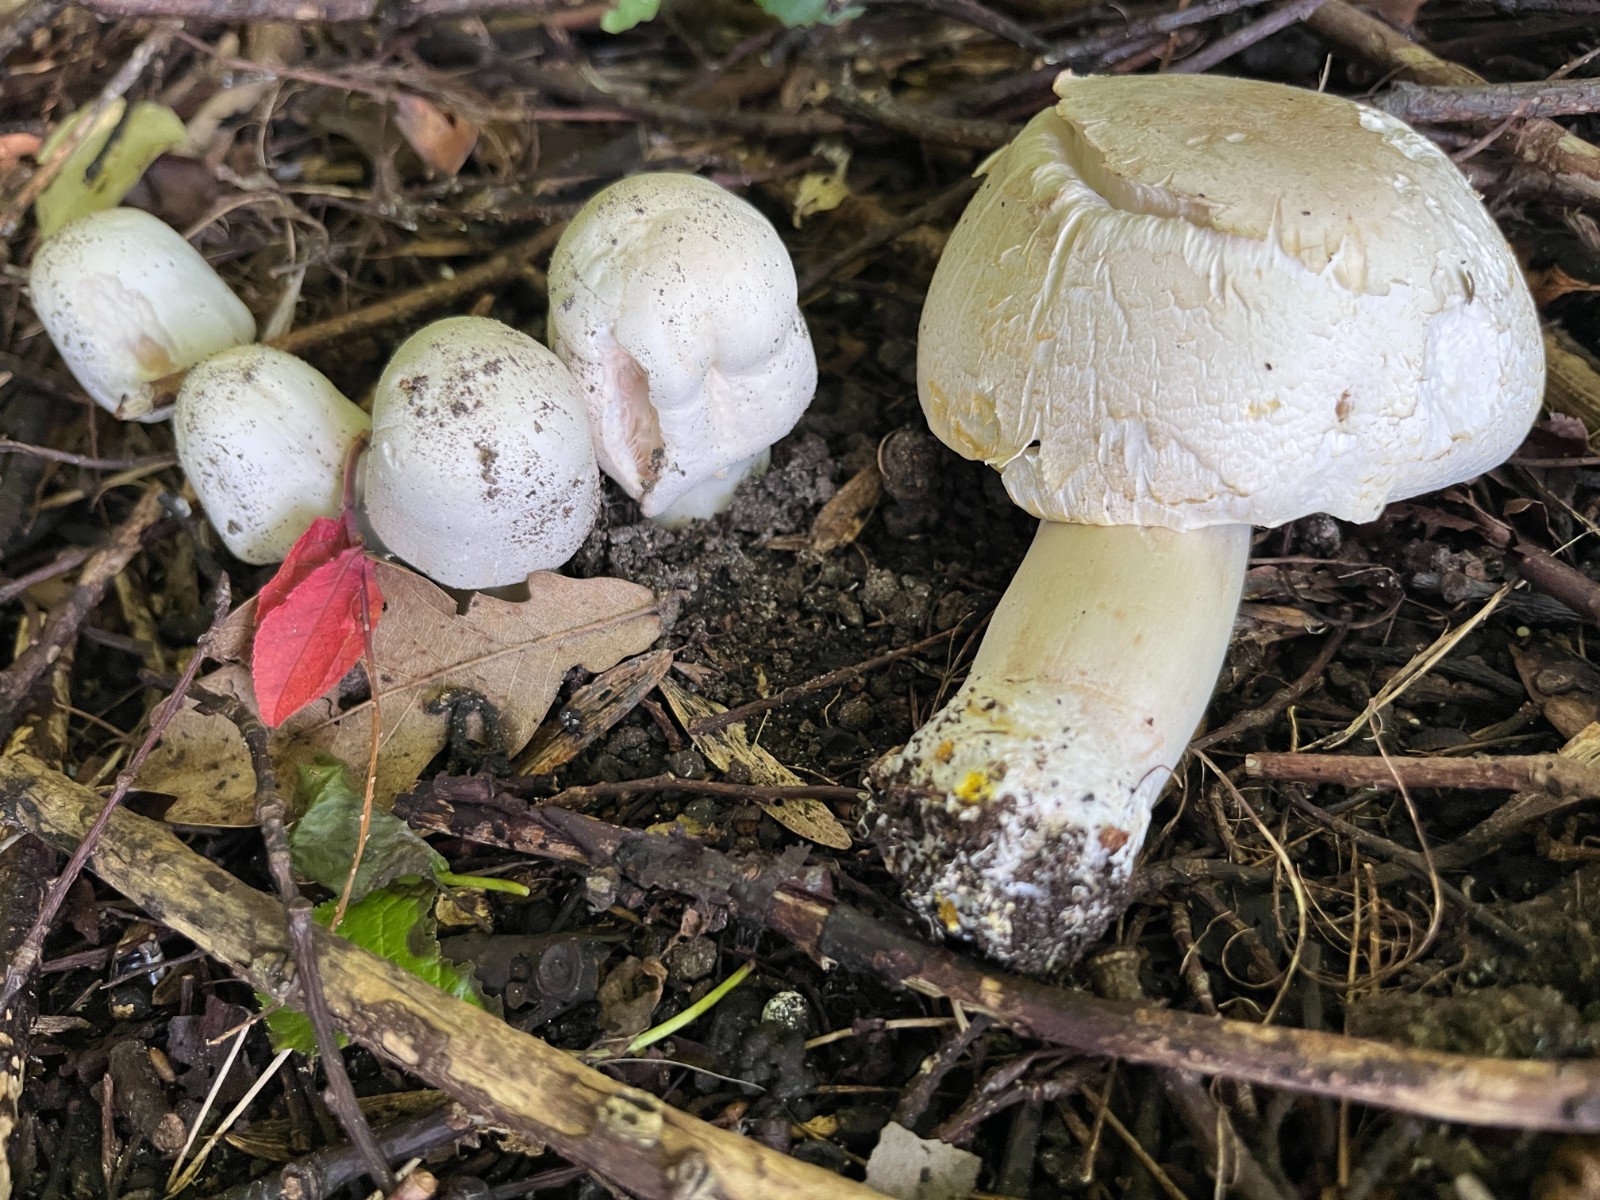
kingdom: Fungi
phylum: Basidiomycota
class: Agaricomycetes
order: Agaricales
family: Agaricaceae
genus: Agaricus
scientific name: Agaricus xanthodermus
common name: karbol-champignon
